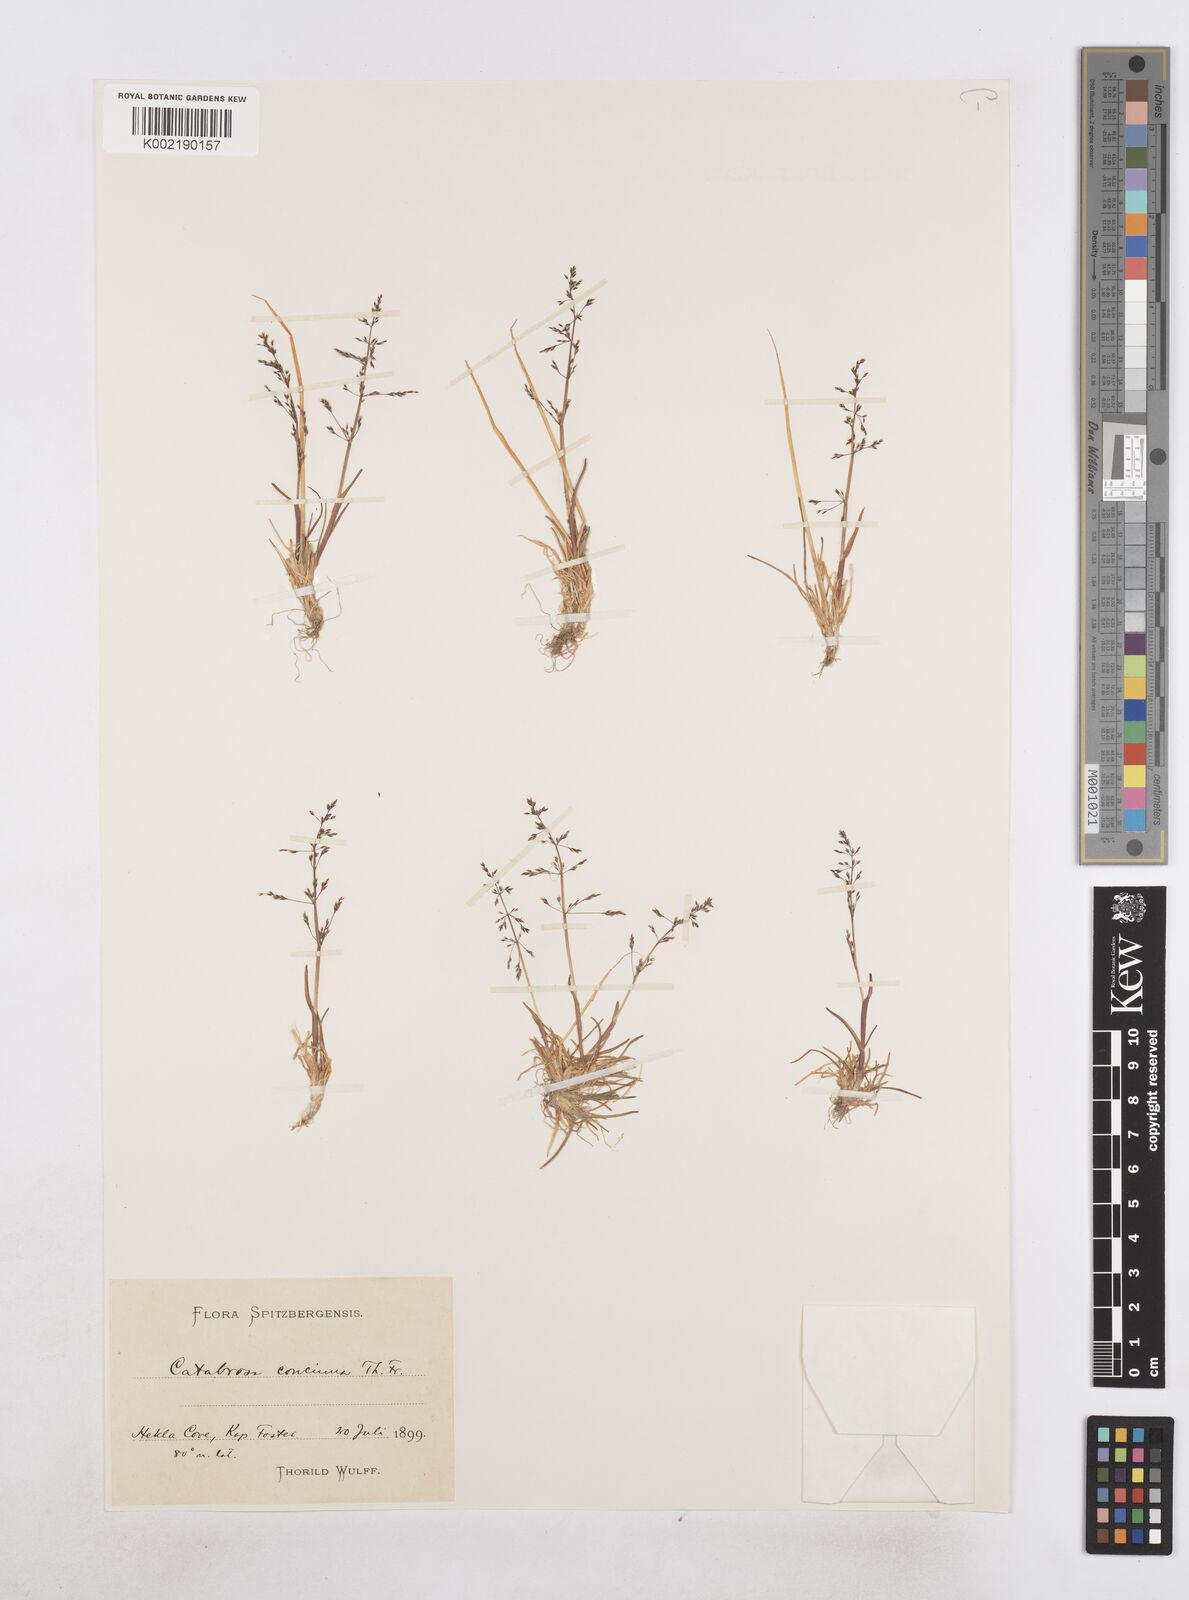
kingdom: Plantae
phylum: Tracheophyta
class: Liliopsida
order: Poales
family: Poaceae
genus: Phippsia
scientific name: Phippsia concinna
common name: Snowgrass
